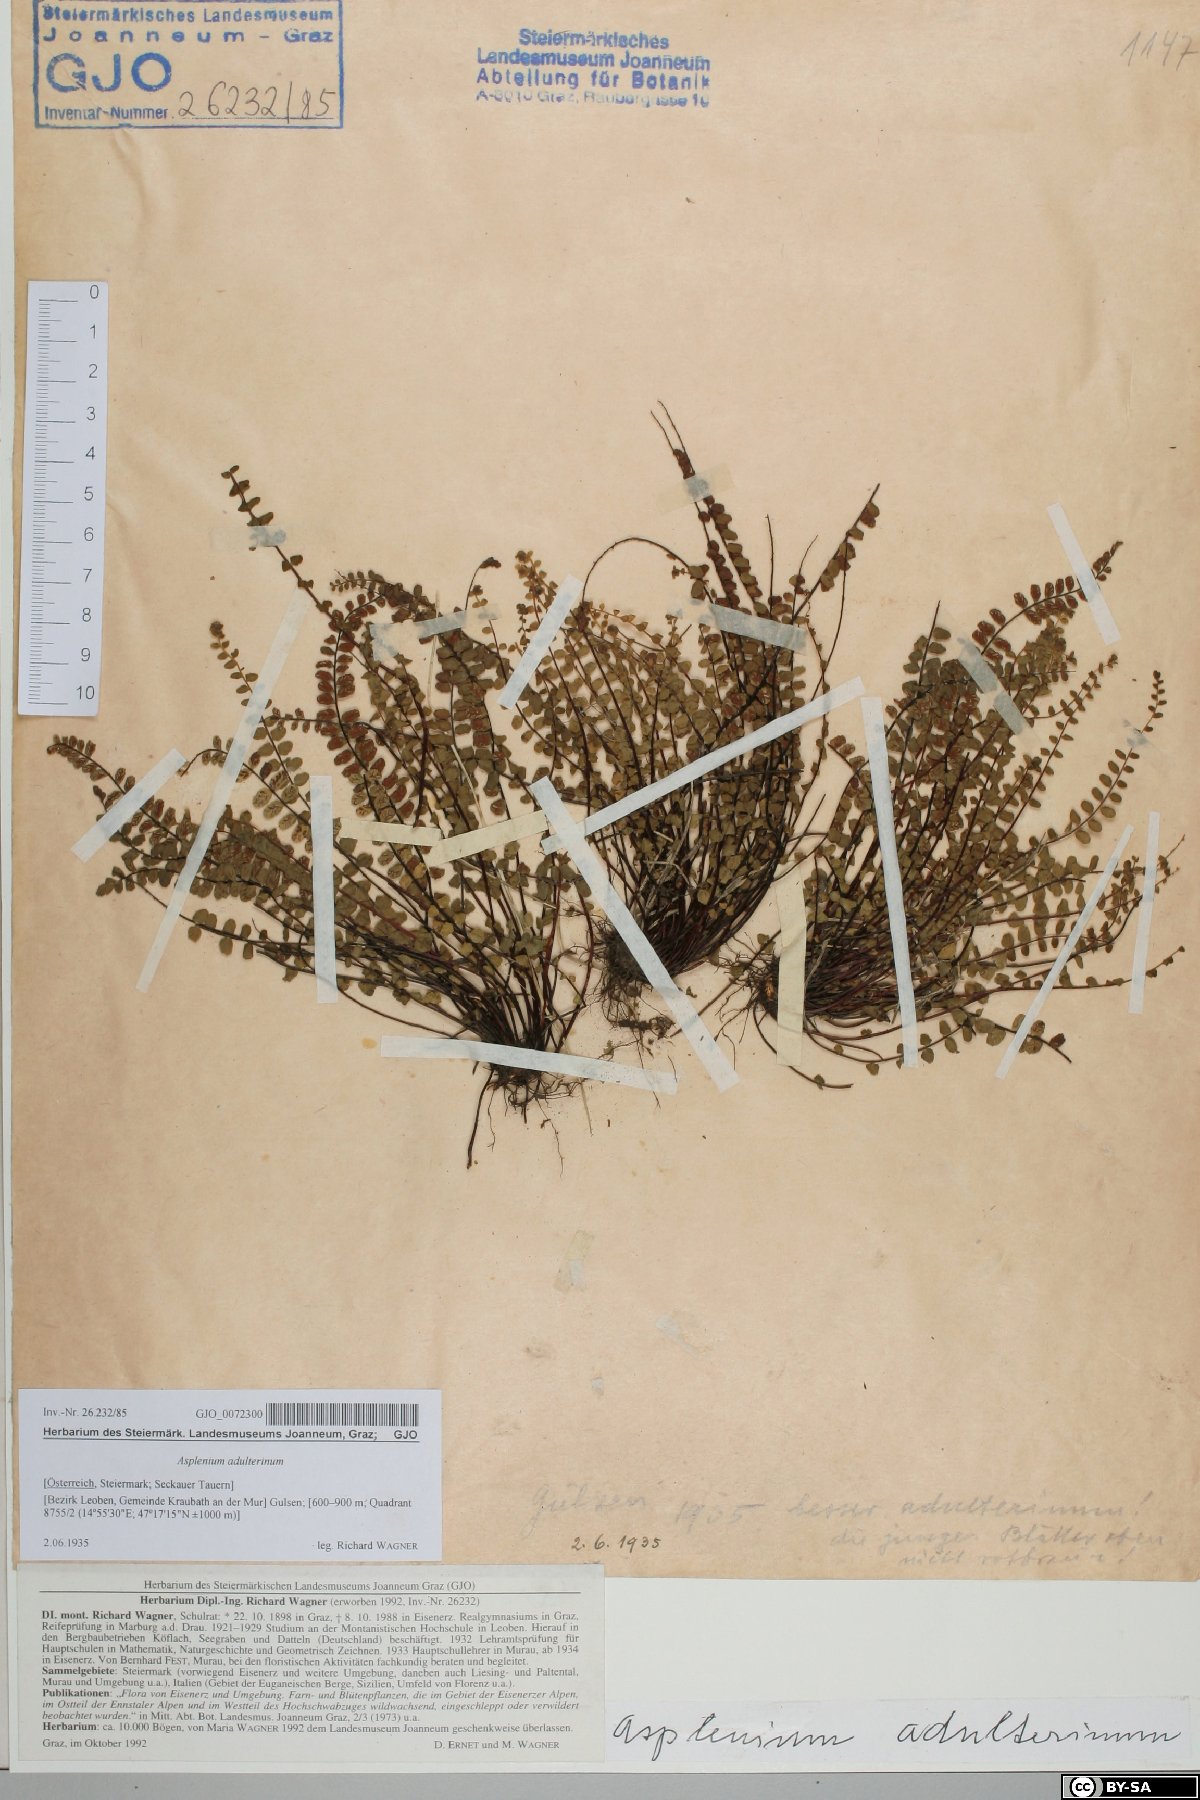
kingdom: Plantae
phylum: Tracheophyta
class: Polypodiopsida
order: Polypodiales
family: Aspleniaceae
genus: Asplenium
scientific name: Asplenium adulterinum
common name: Adulterated spleenwort
